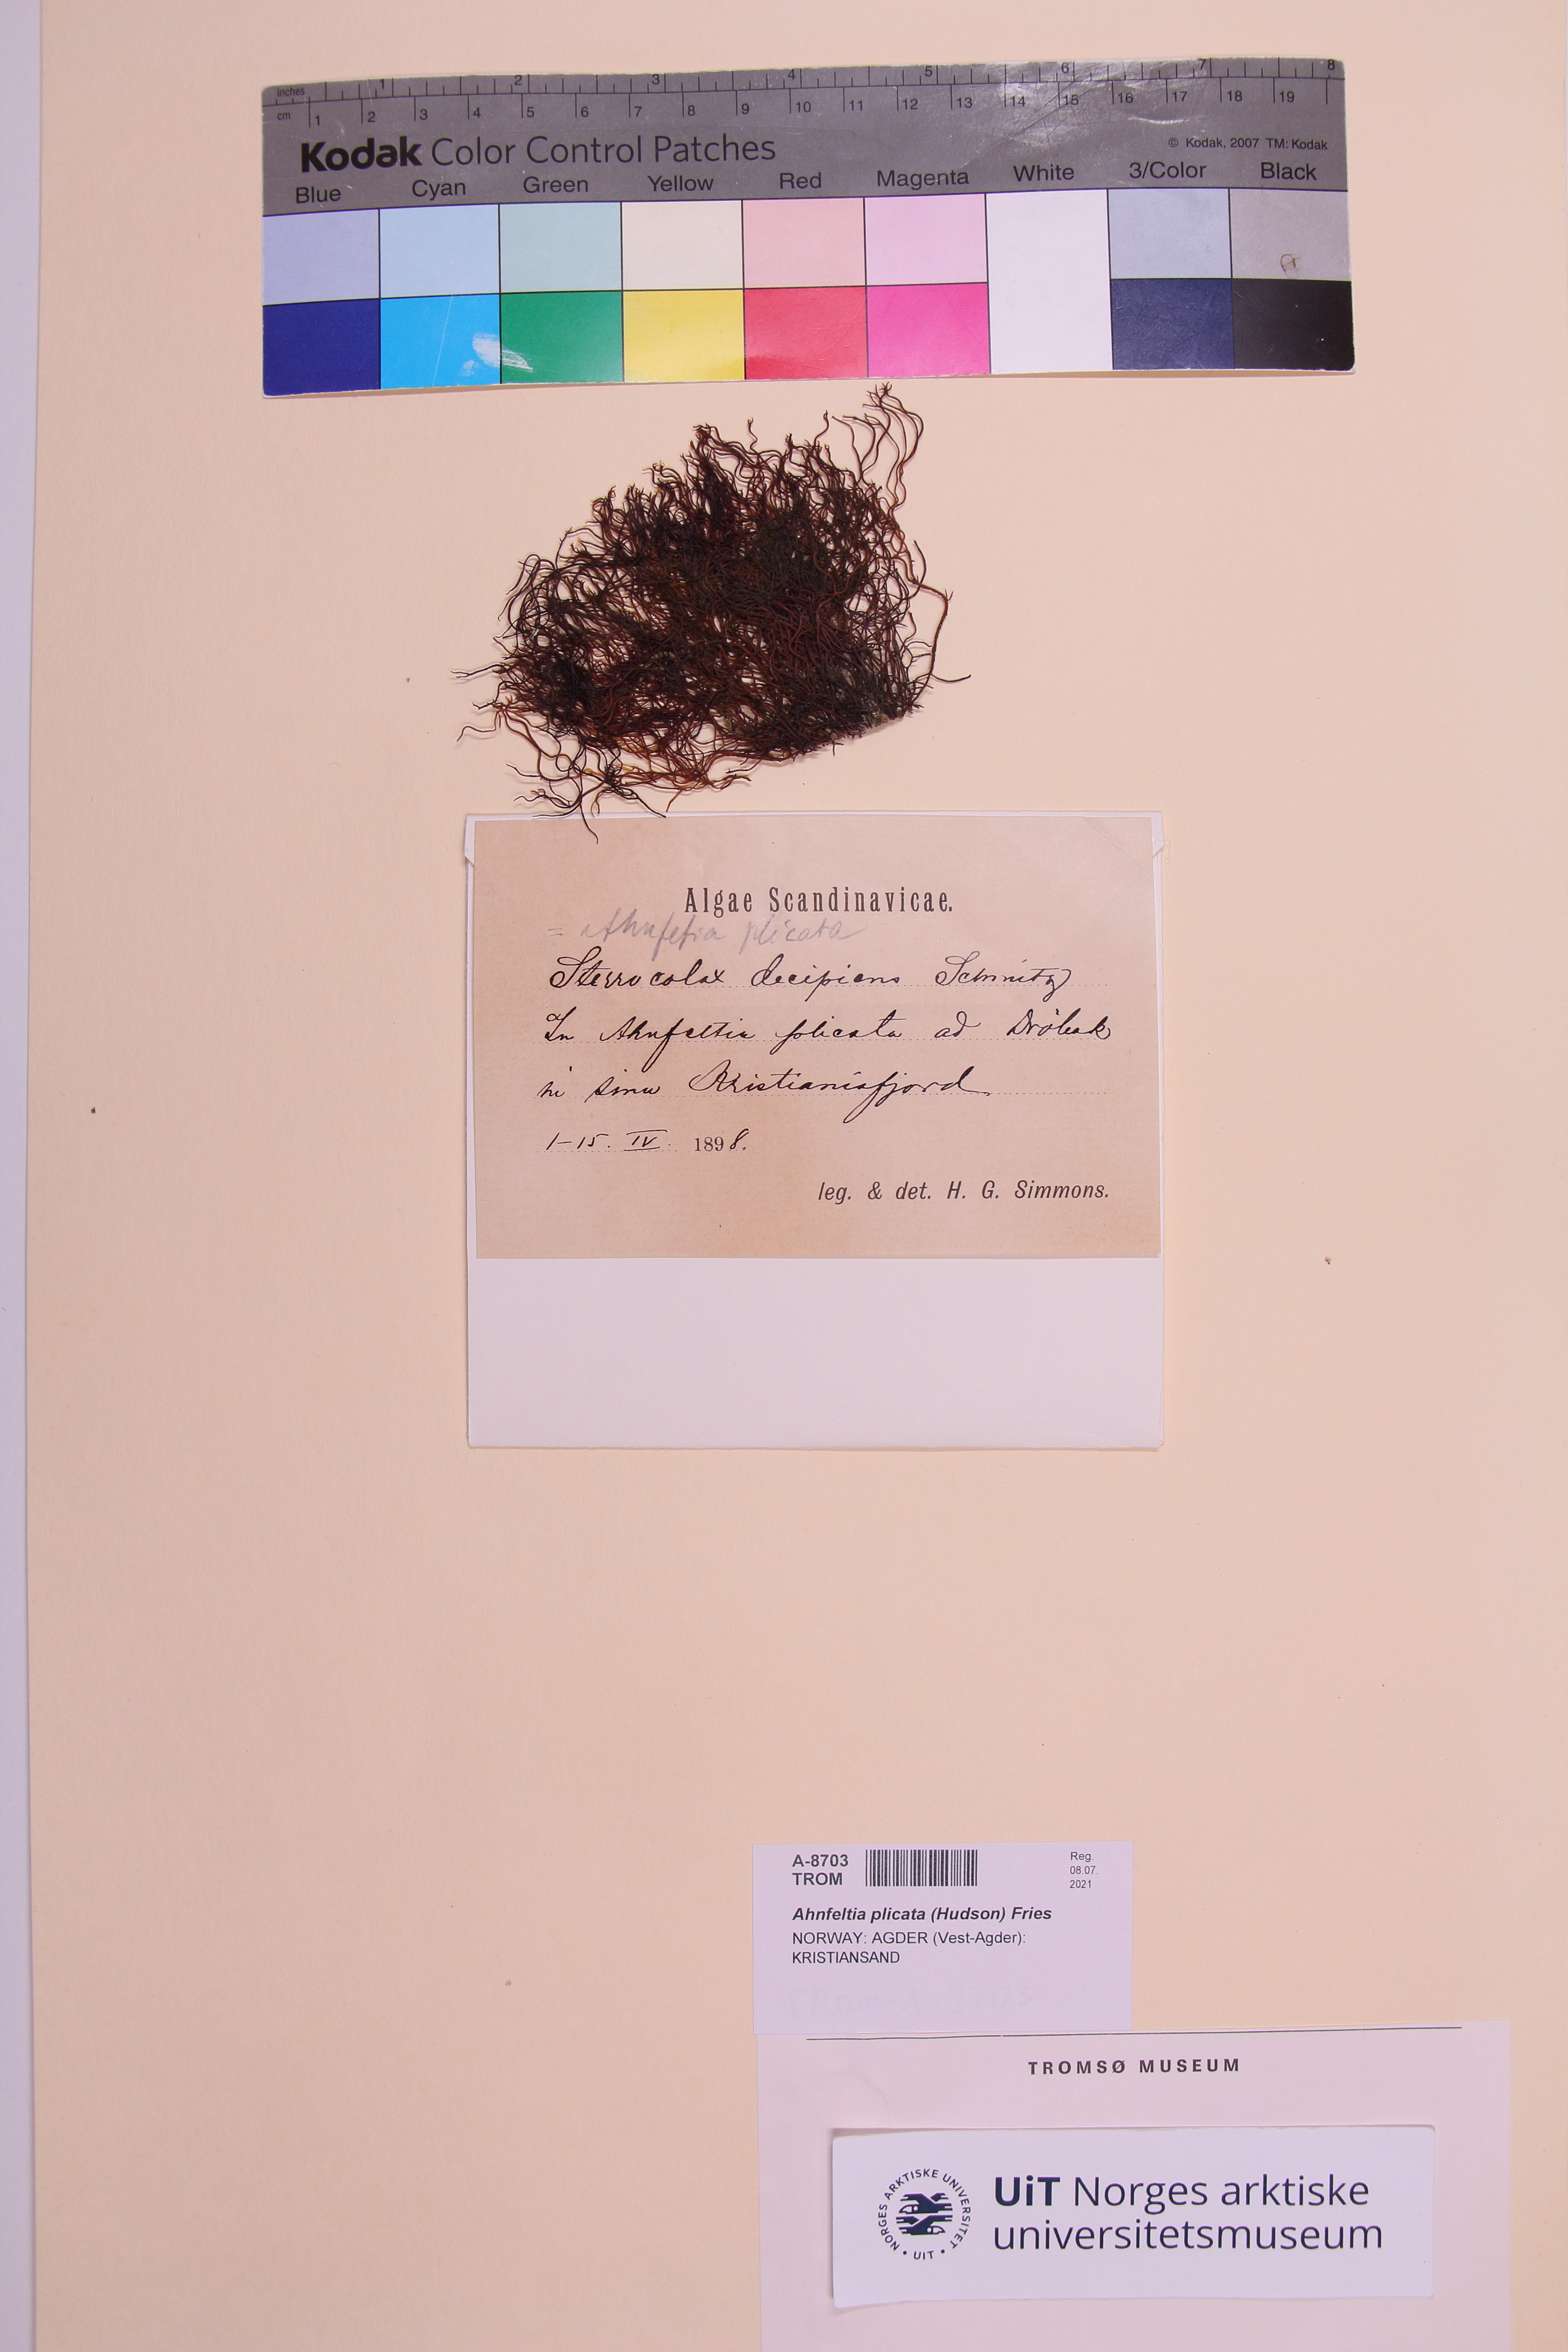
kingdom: Plantae
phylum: Rhodophyta
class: Florideophyceae
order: Ahnfeltiales
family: Ahnfeltiaceae
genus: Ahnfeltia
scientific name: Ahnfeltia plicata
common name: Landlady's wig
